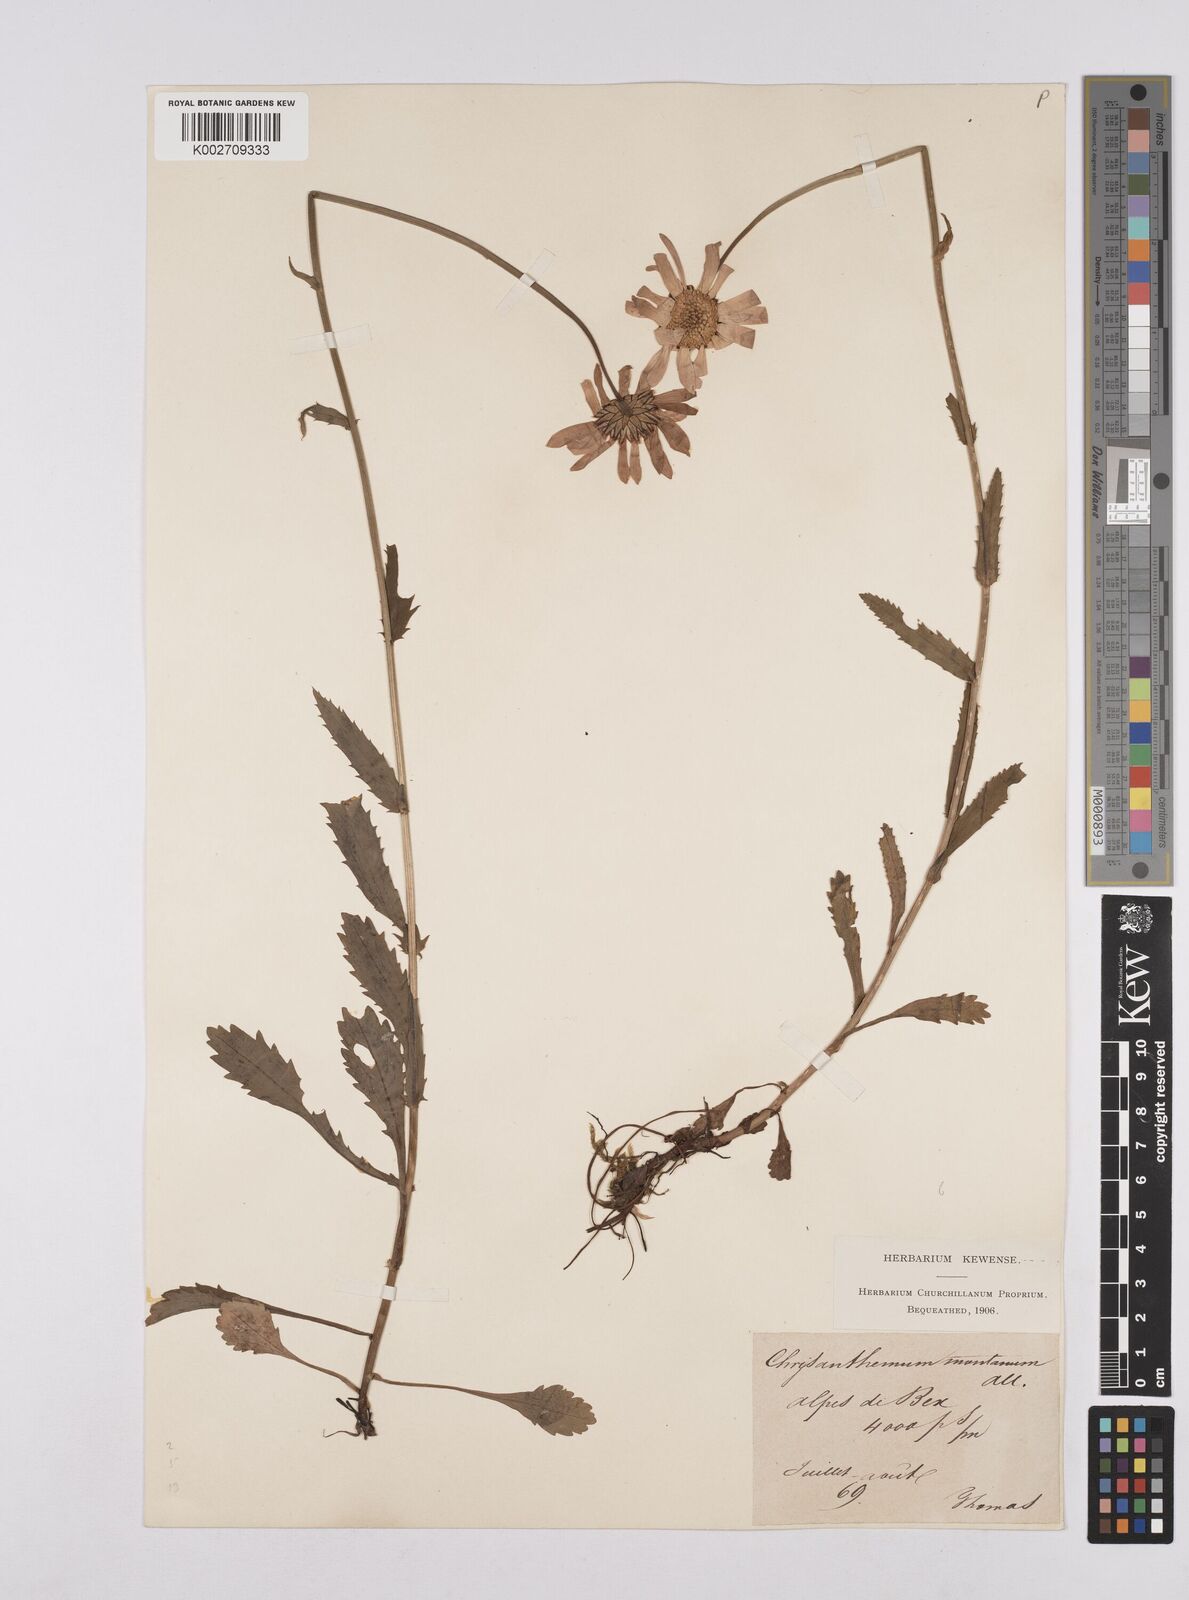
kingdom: Plantae
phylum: Tracheophyta
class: Magnoliopsida
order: Asterales
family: Asteraceae
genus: Leucanthemum
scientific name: Leucanthemum chloroticum
